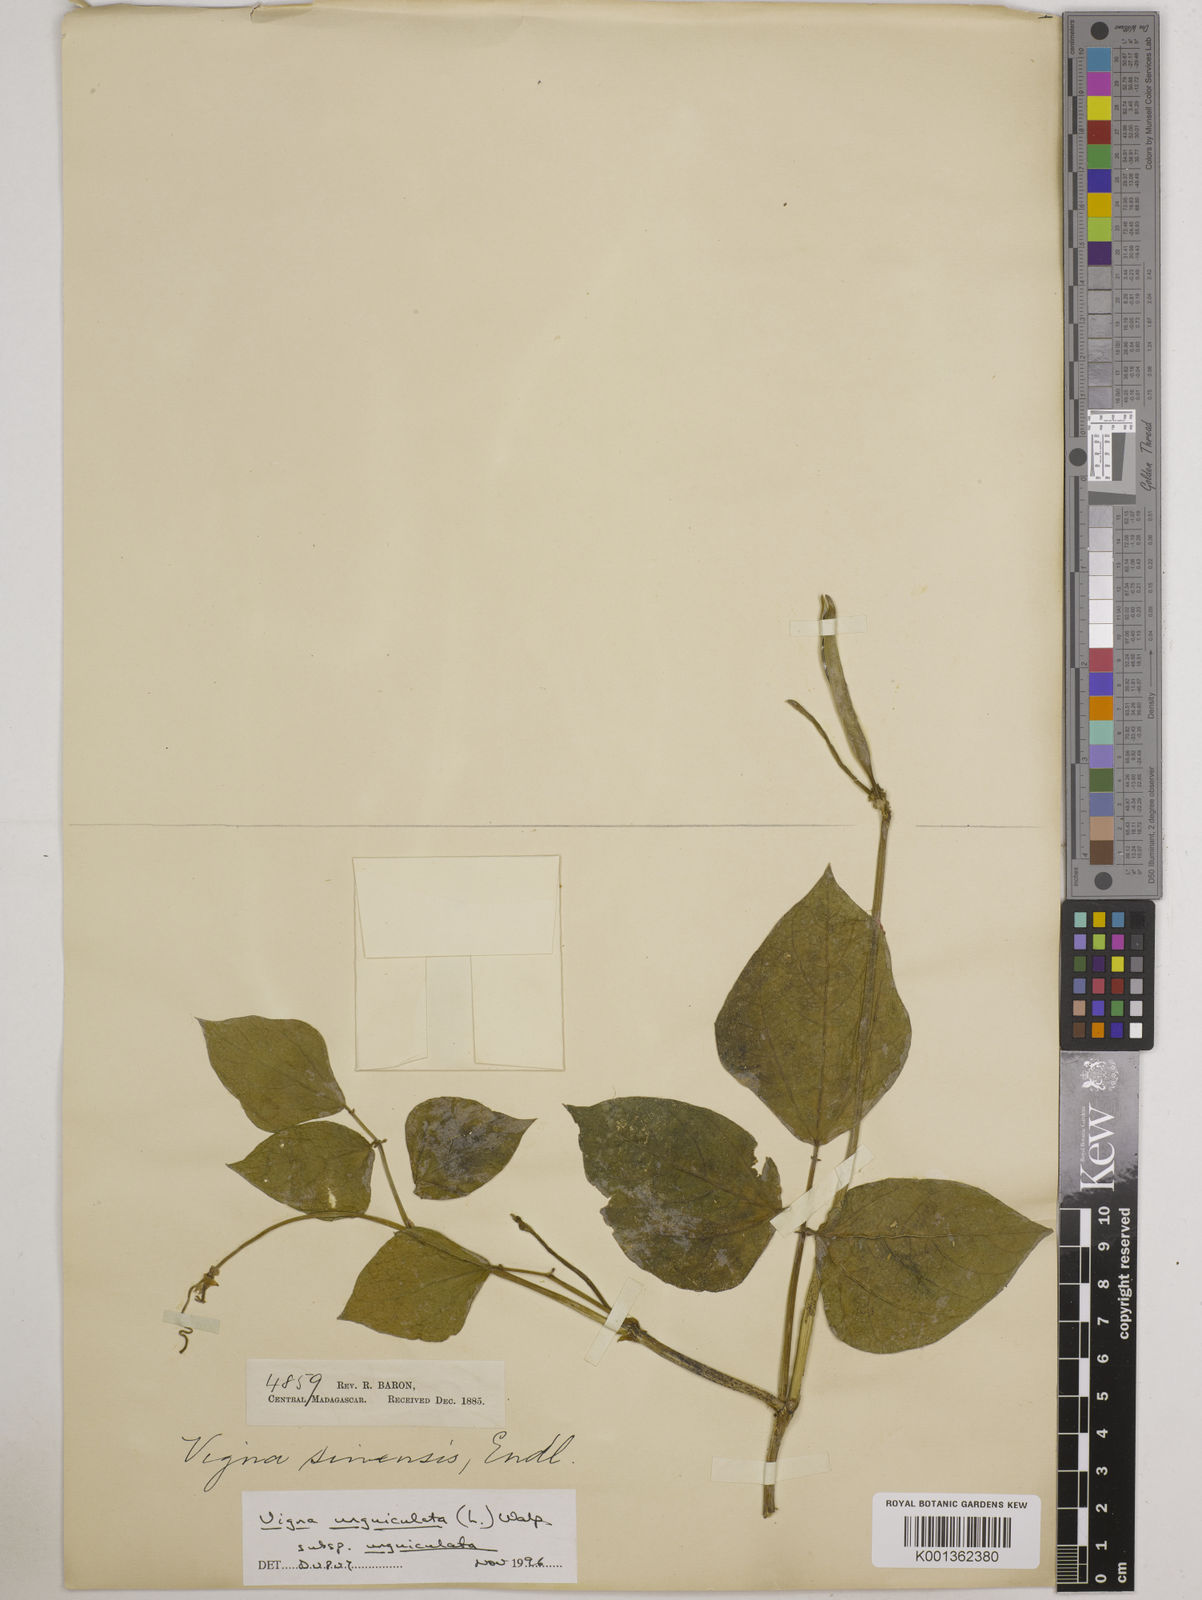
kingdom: Plantae
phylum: Tracheophyta
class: Magnoliopsida
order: Fabales
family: Fabaceae
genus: Vigna
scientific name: Vigna
